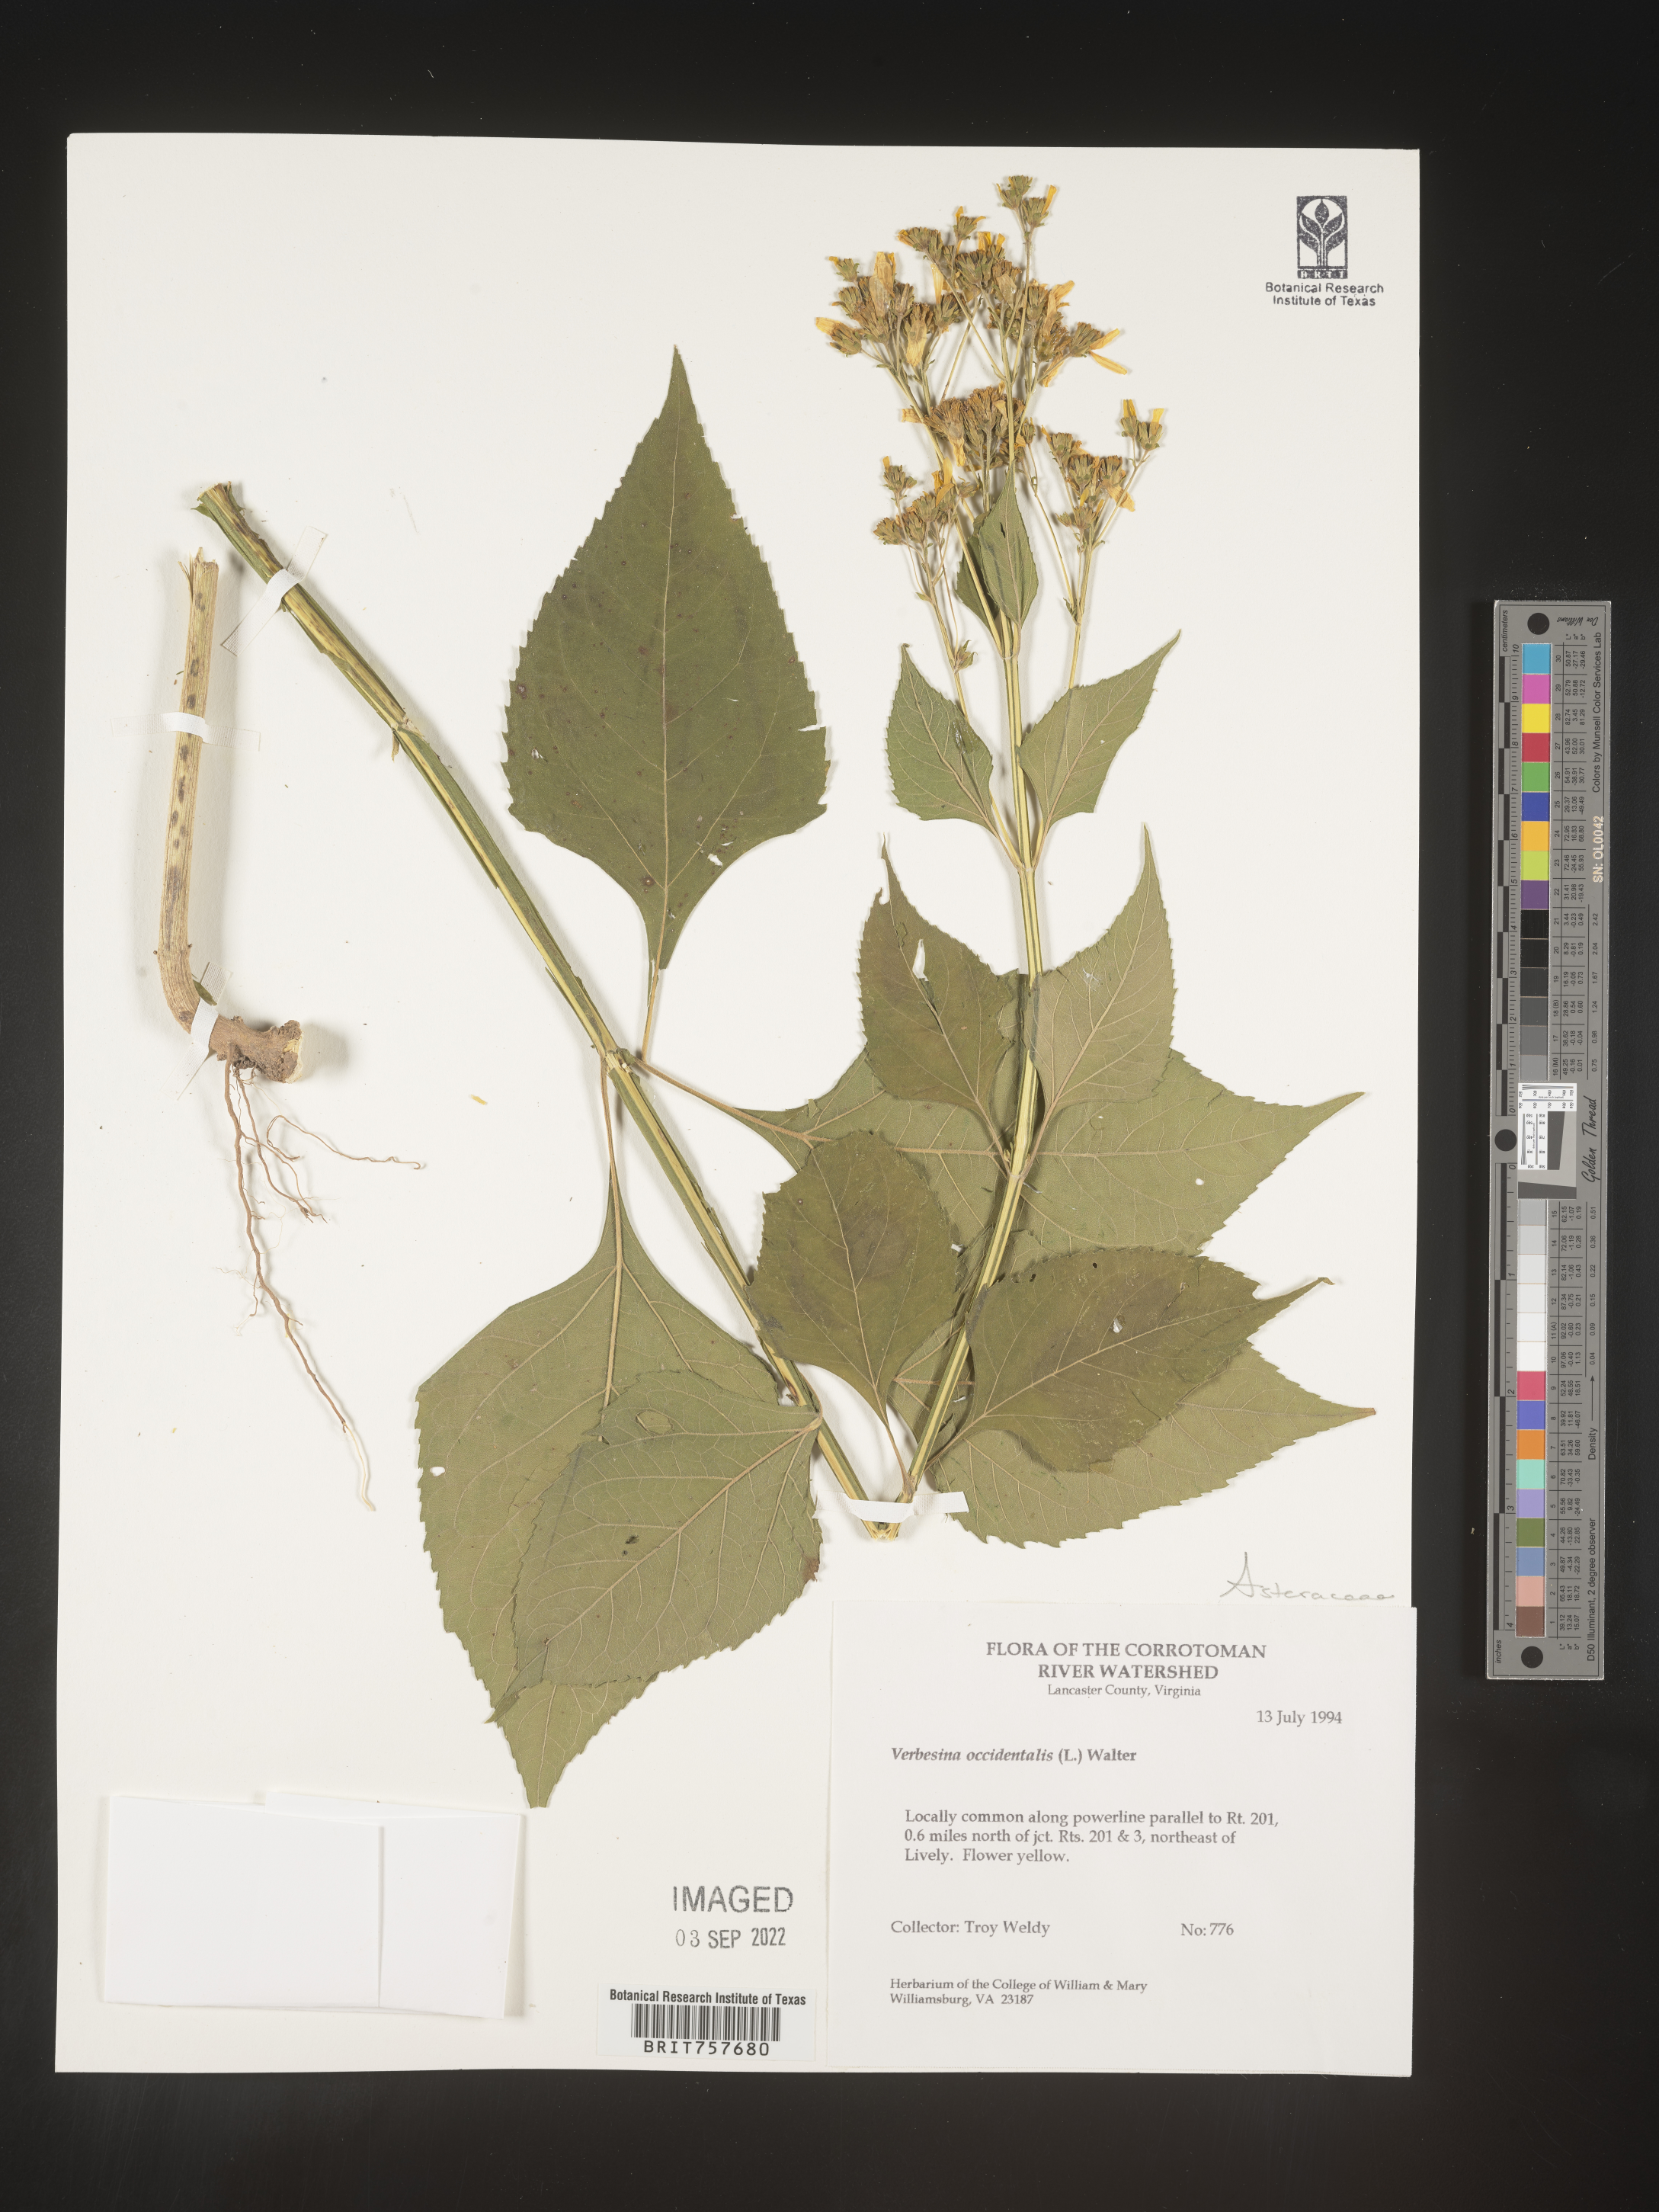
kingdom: Plantae
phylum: Tracheophyta
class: Magnoliopsida
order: Asterales
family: Asteraceae
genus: Verbesina
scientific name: Verbesina occidentalis
